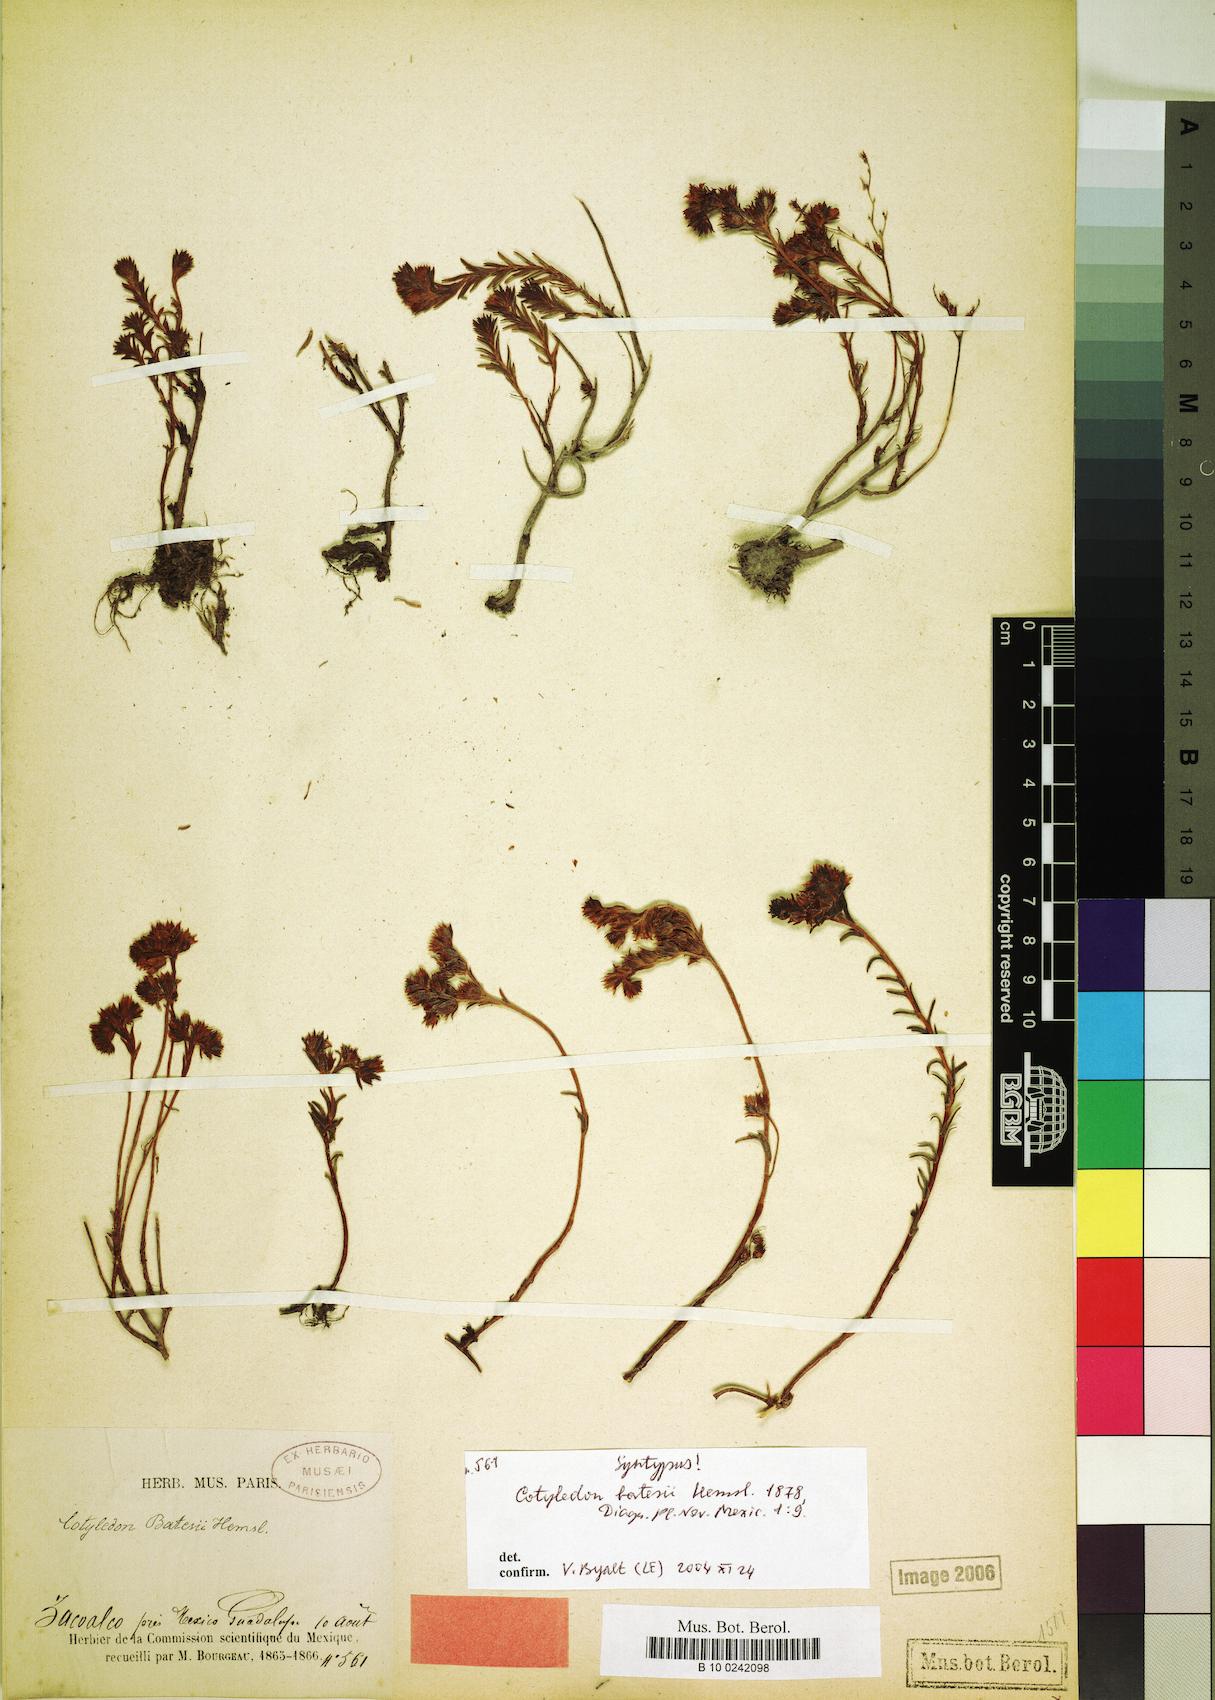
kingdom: Plantae
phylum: Tracheophyta
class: Magnoliopsida
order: Saxifragales
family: Crassulaceae
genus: Sedum
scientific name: Sedum goldmanii
